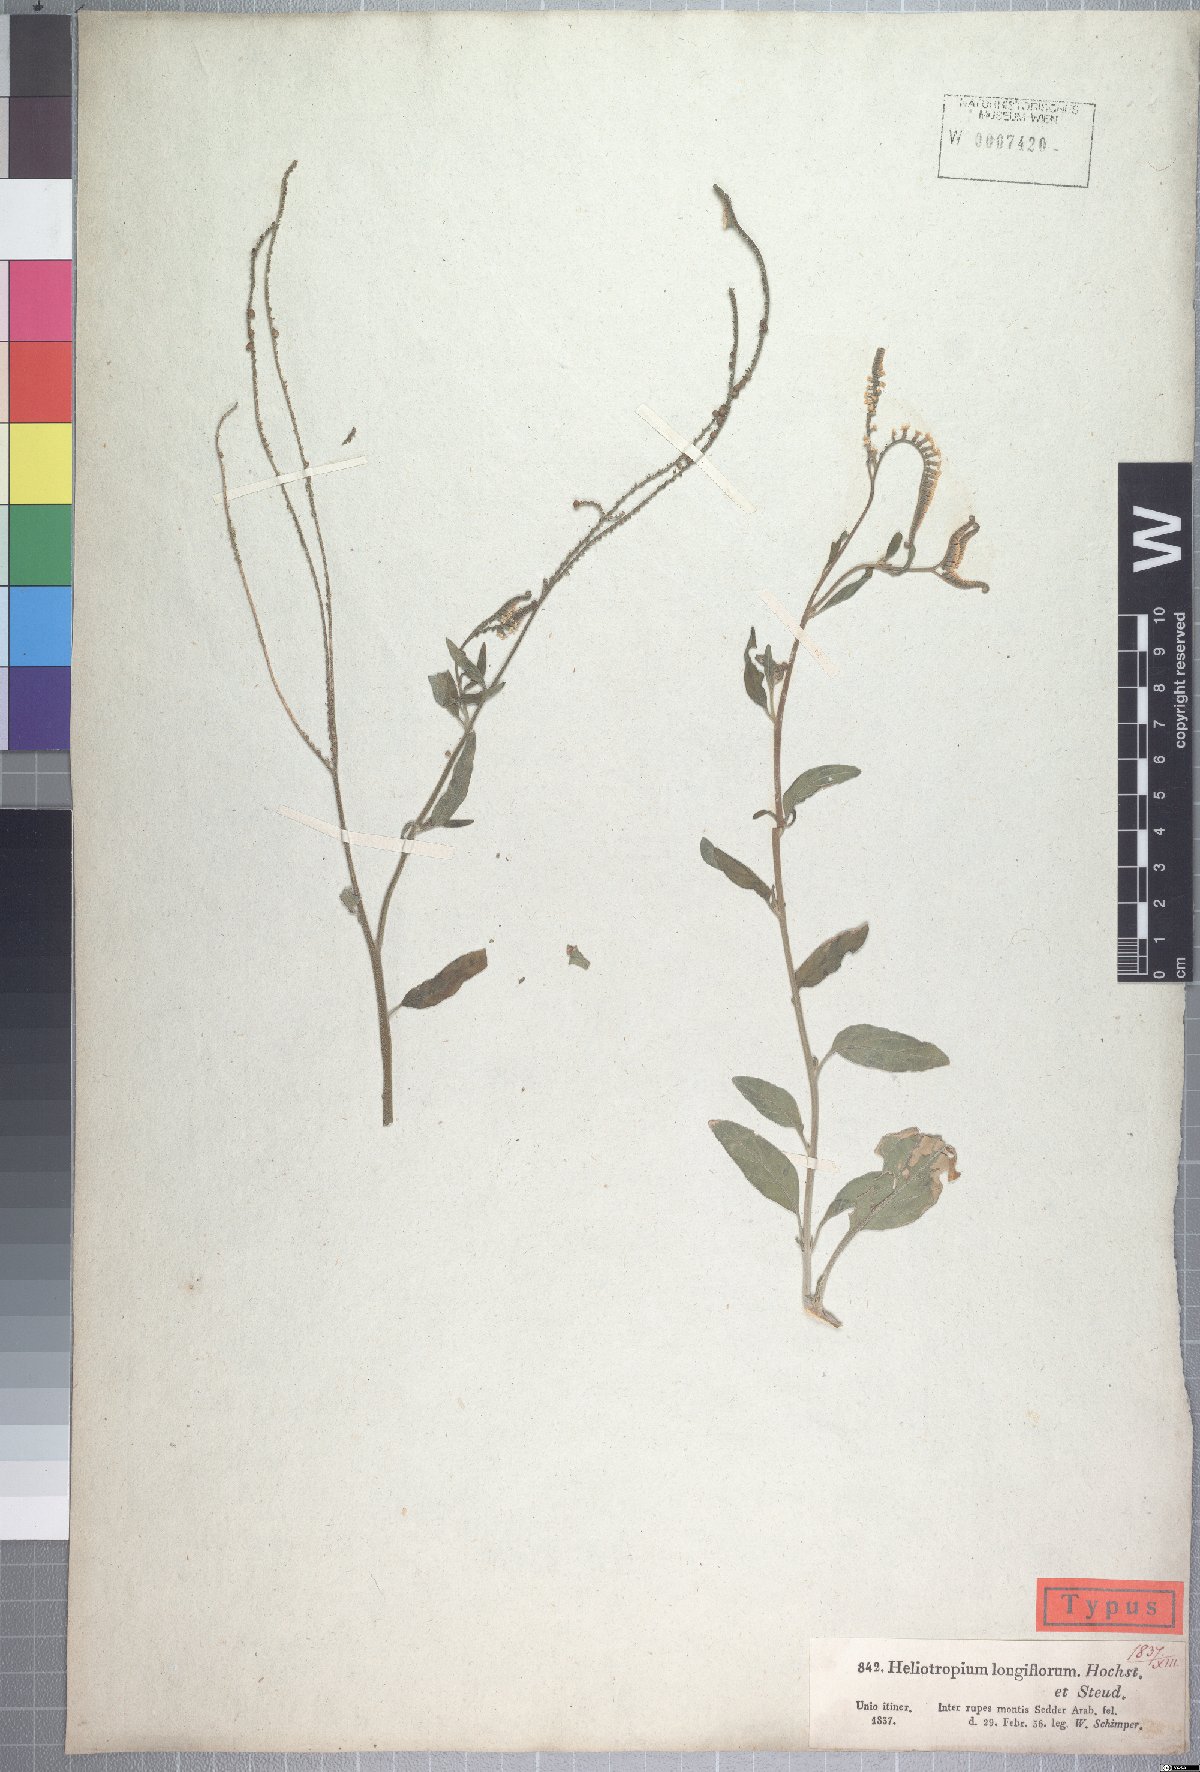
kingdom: Plantae
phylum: Tracheophyta
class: Magnoliopsida
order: Boraginales
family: Heliotropiaceae
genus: Heliotropium
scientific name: Heliotropium longiflorum
